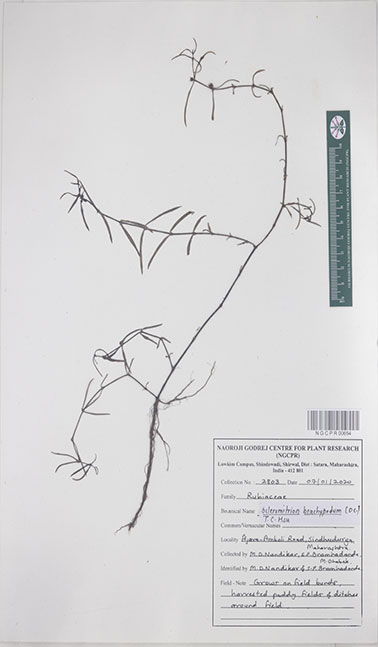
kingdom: Plantae
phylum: Tracheophyta
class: Magnoliopsida
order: Gentianales
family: Rubiaceae
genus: Scleromitrion
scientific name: Scleromitrion brachypodum
